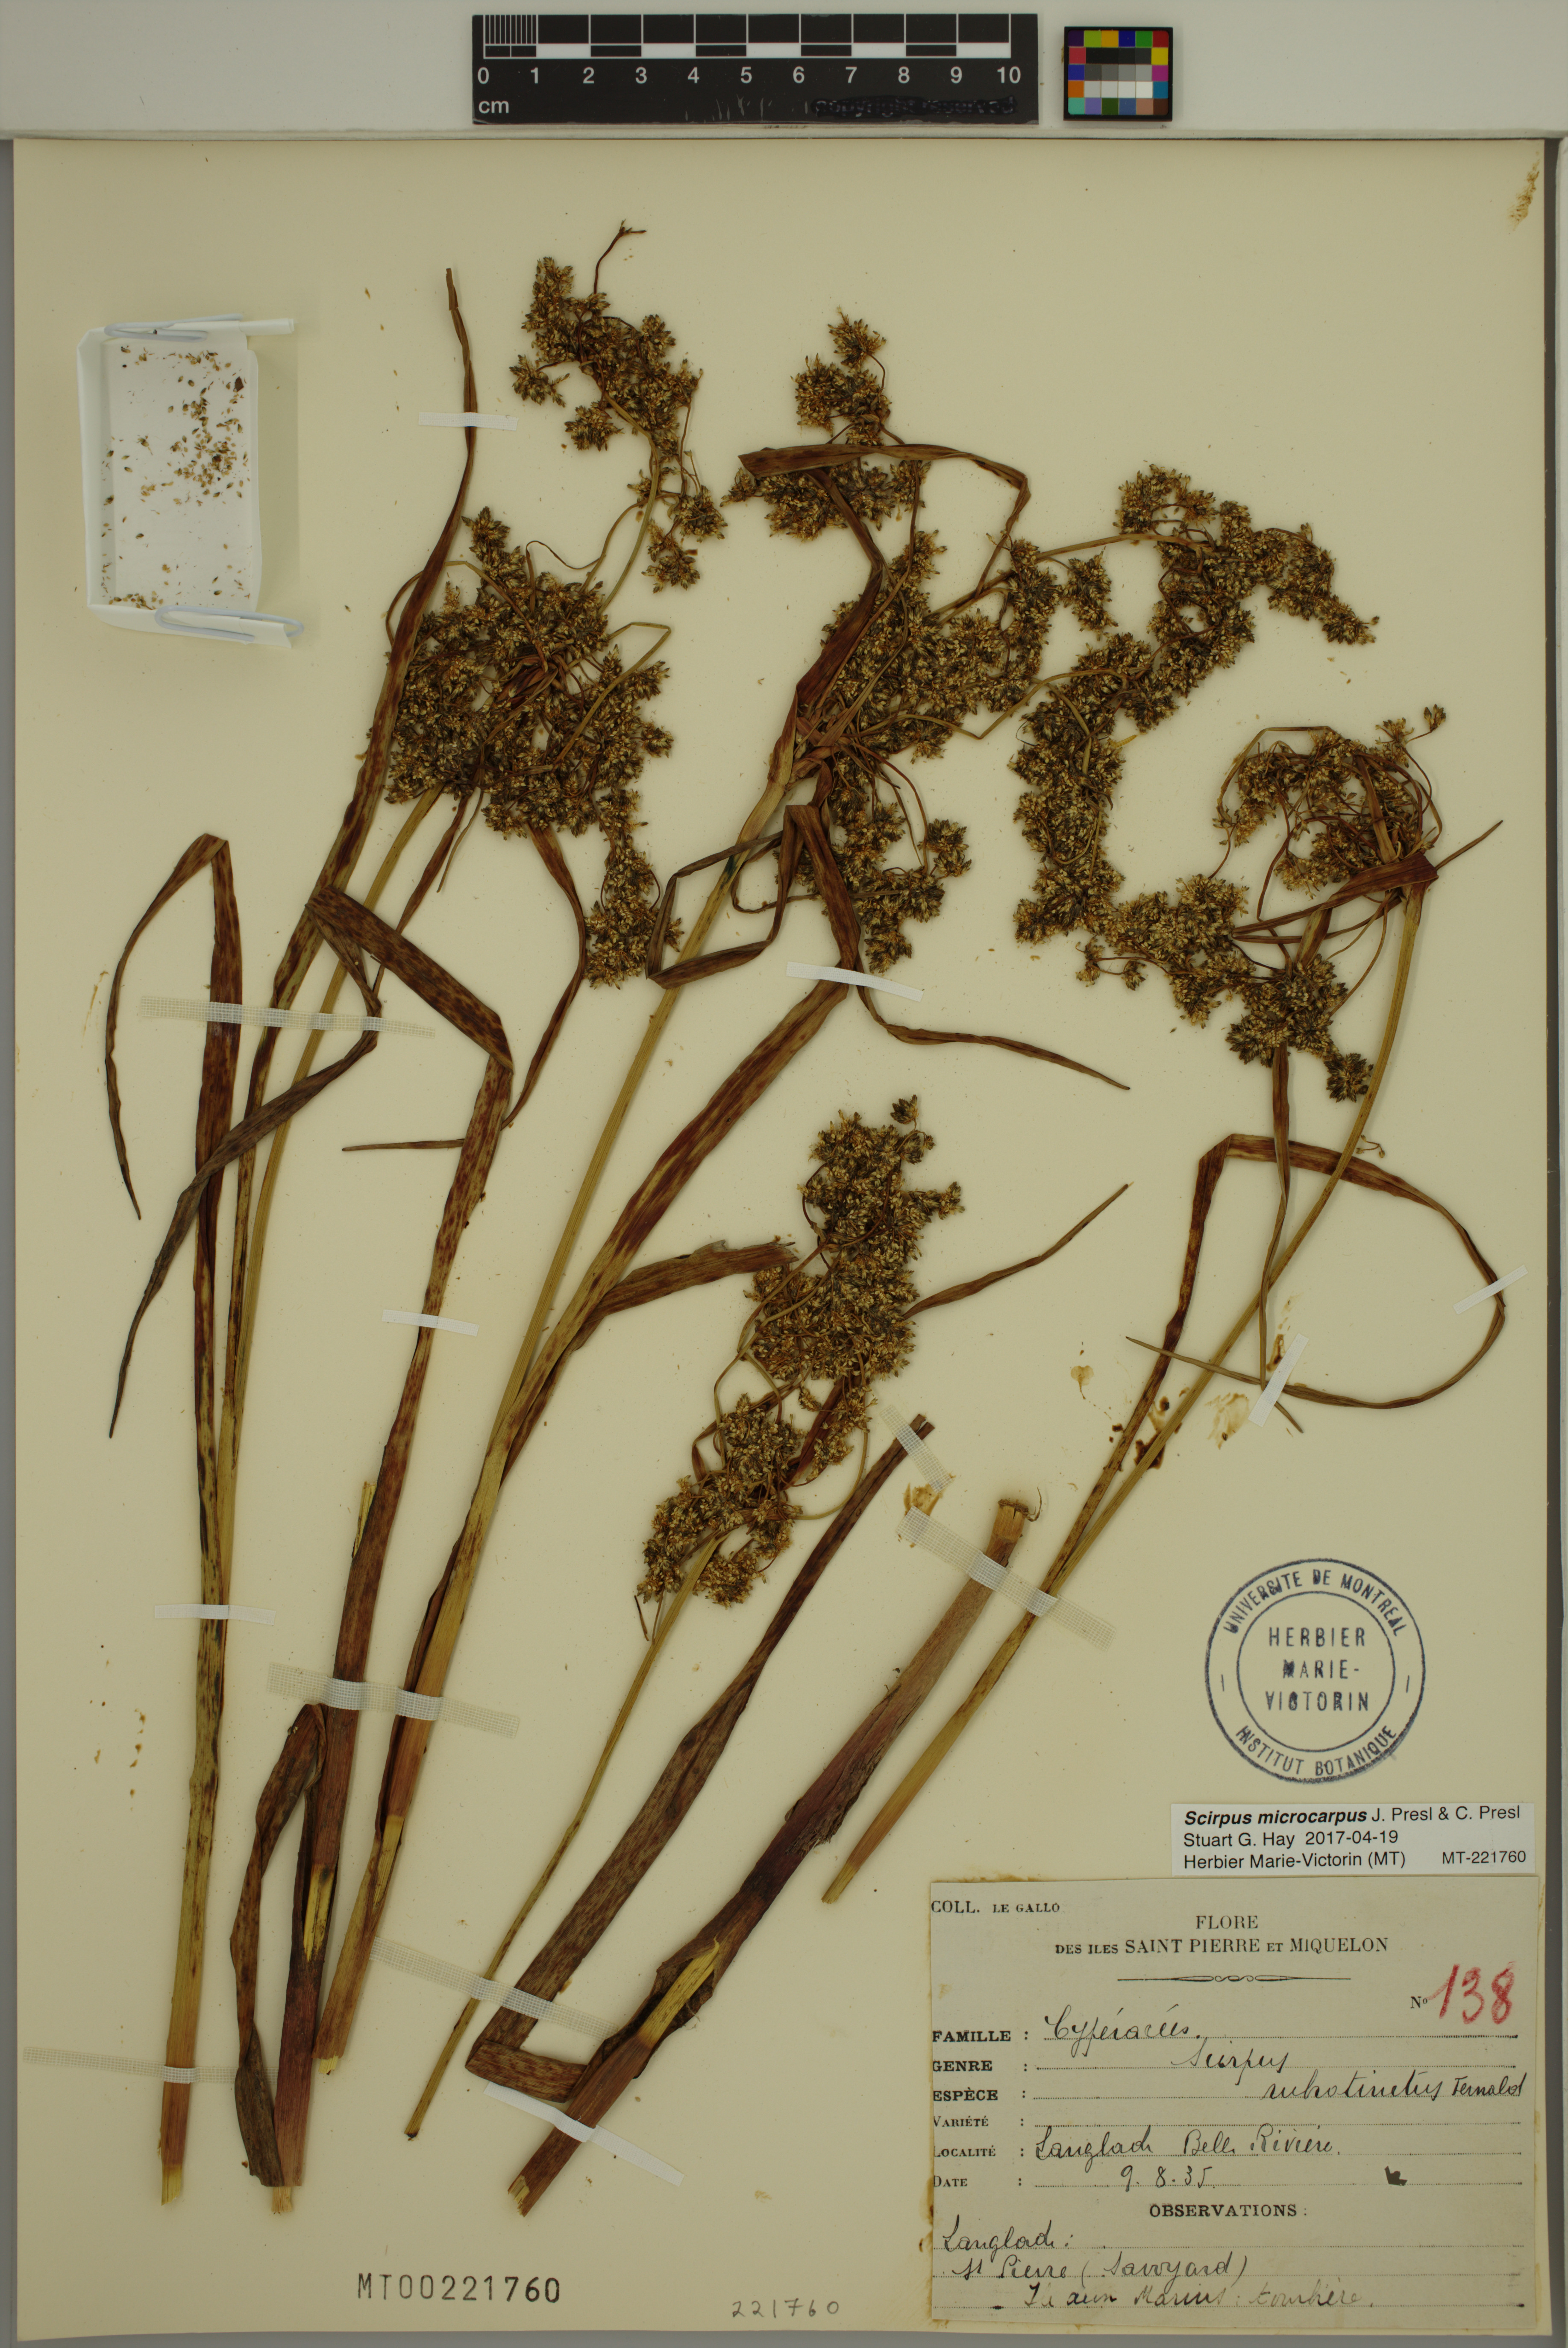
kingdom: Plantae
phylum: Tracheophyta
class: Liliopsida
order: Poales
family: Cyperaceae
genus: Scirpus
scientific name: Scirpus microcarpus
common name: Panicled bulrush
